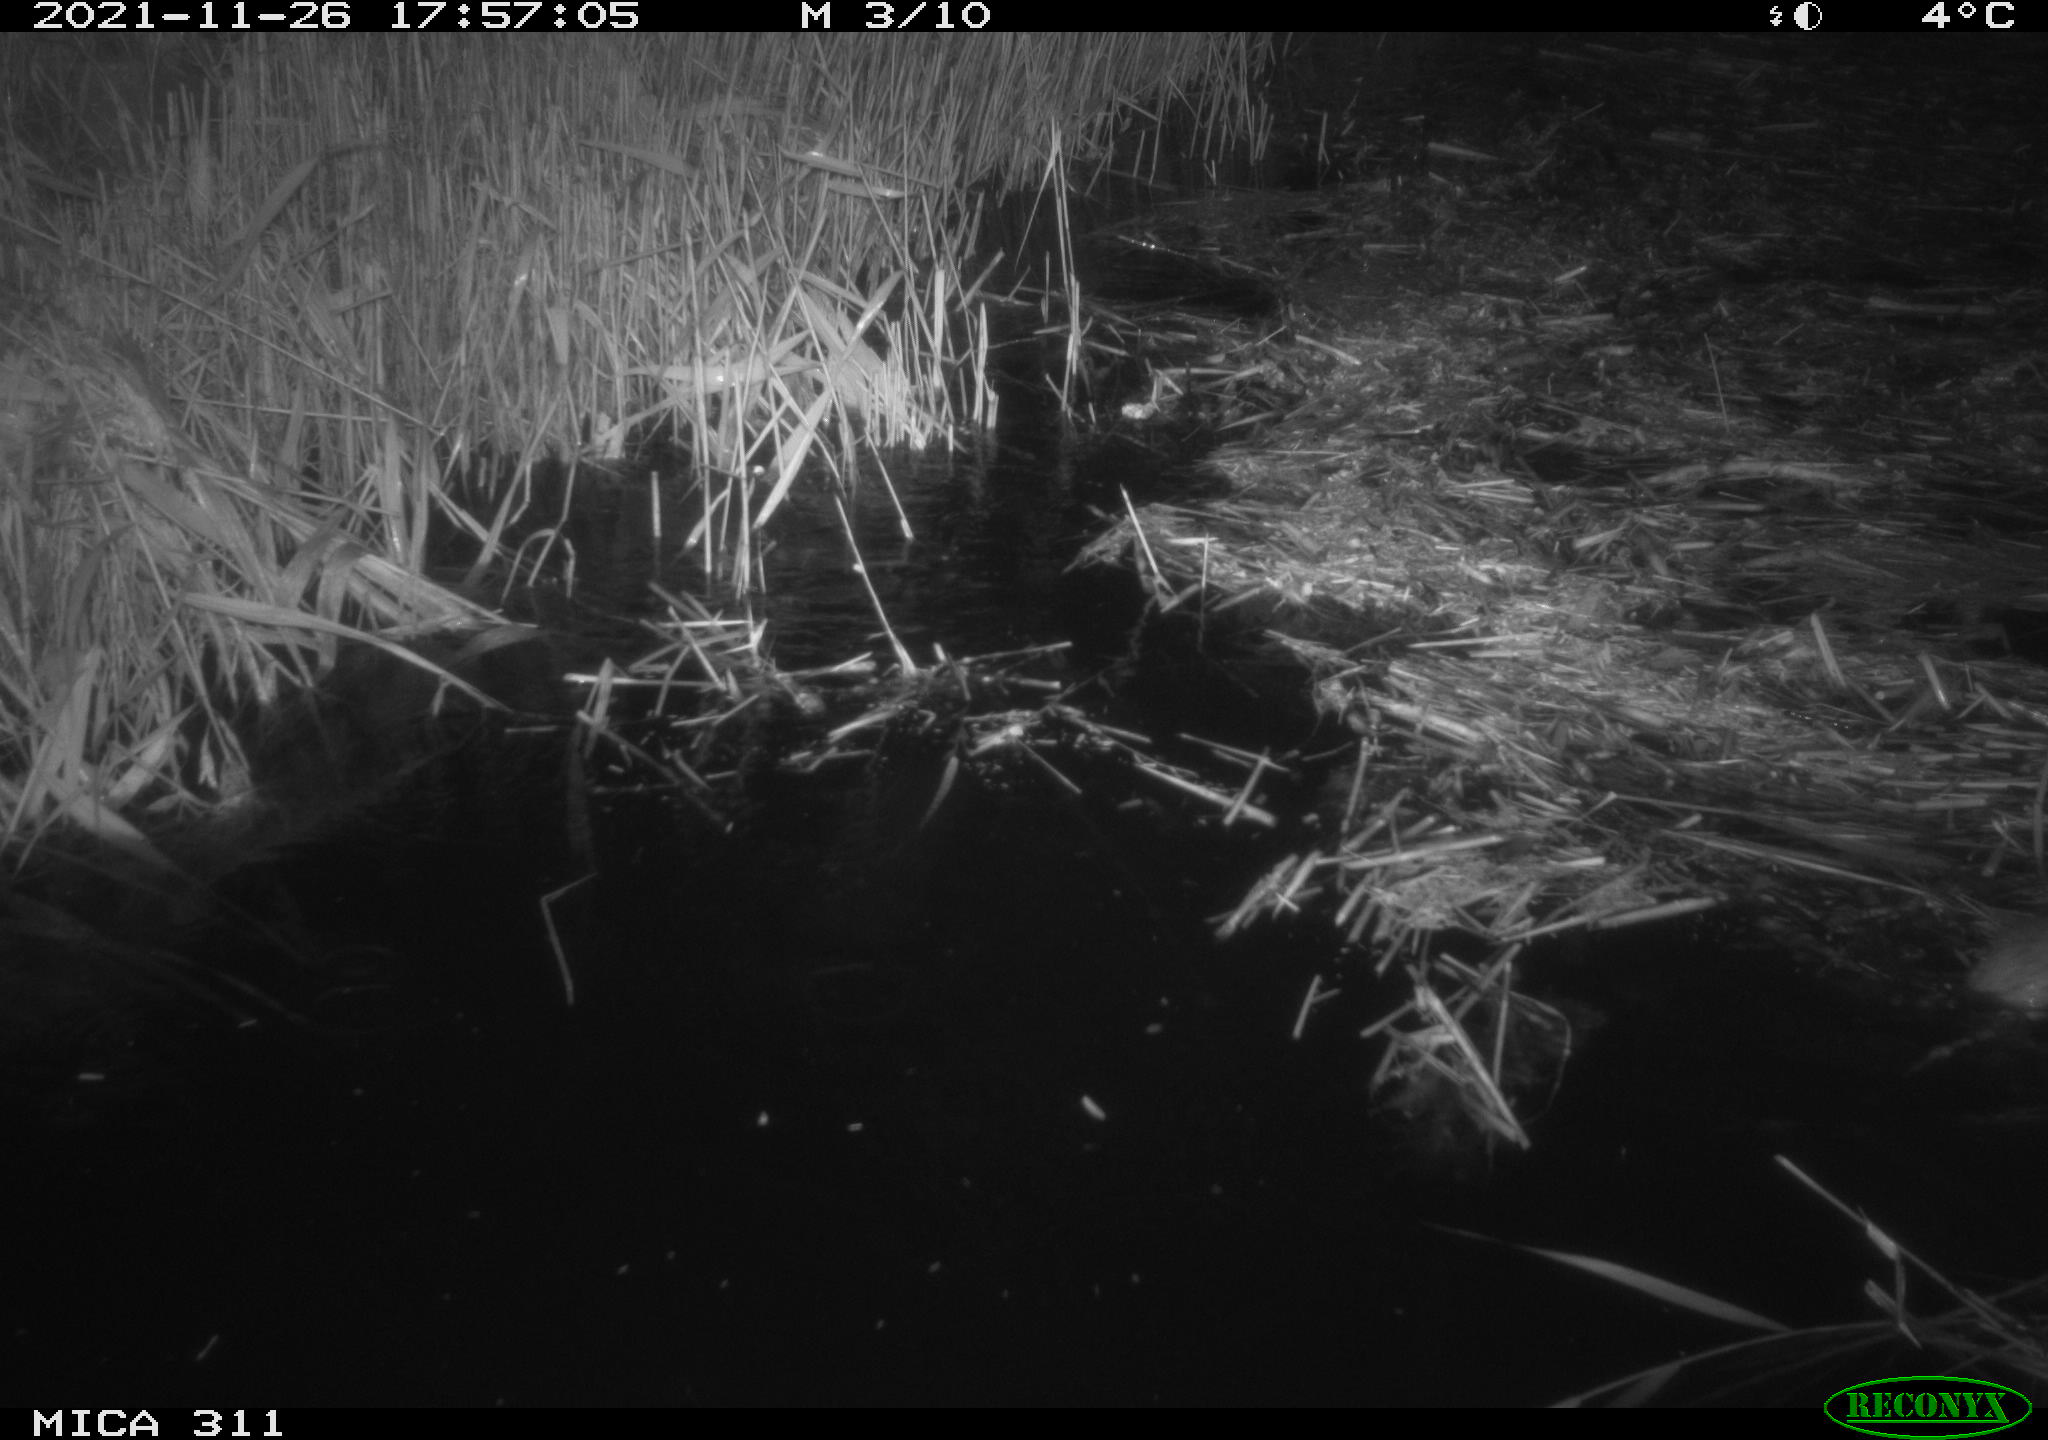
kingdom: Animalia
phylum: Chordata
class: Mammalia
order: Rodentia
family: Muridae
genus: Rattus
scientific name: Rattus norvegicus
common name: Brown rat
